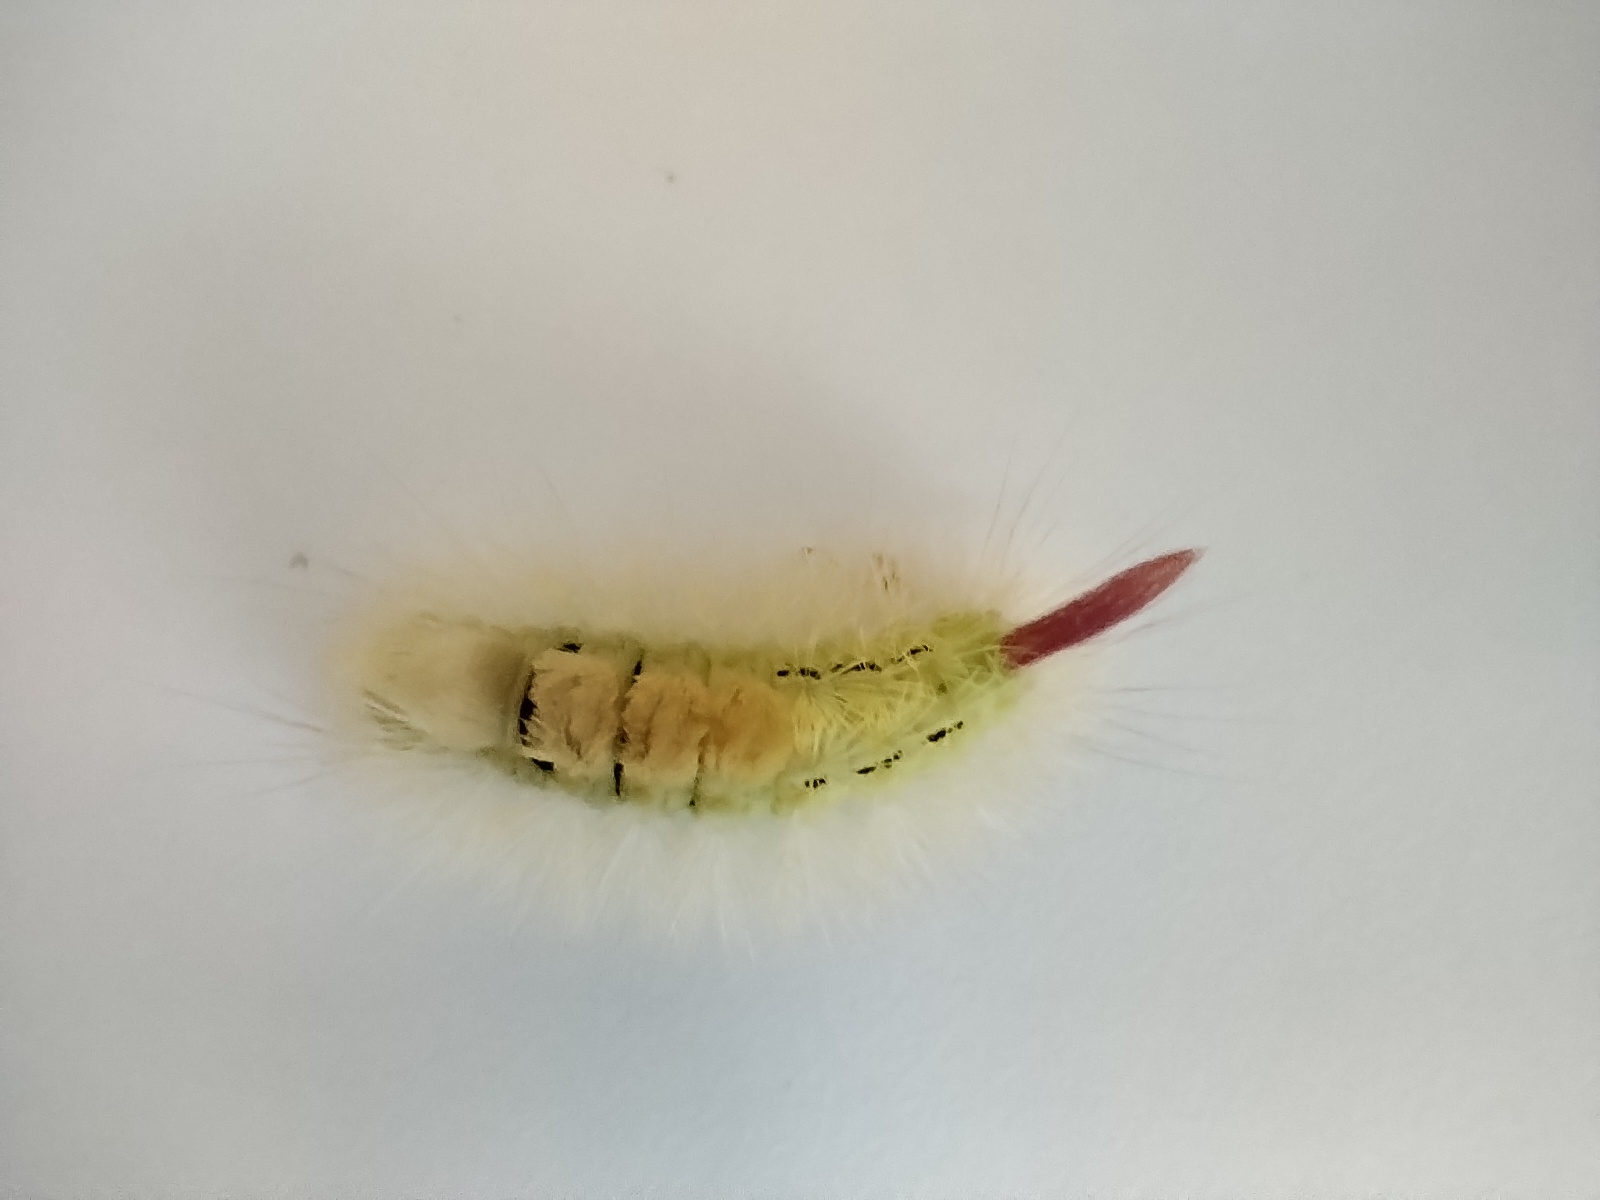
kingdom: Animalia
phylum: Arthropoda
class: Insecta
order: Lepidoptera
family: Erebidae
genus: Calliteara
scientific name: Calliteara pudibunda
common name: Bøgenonne
